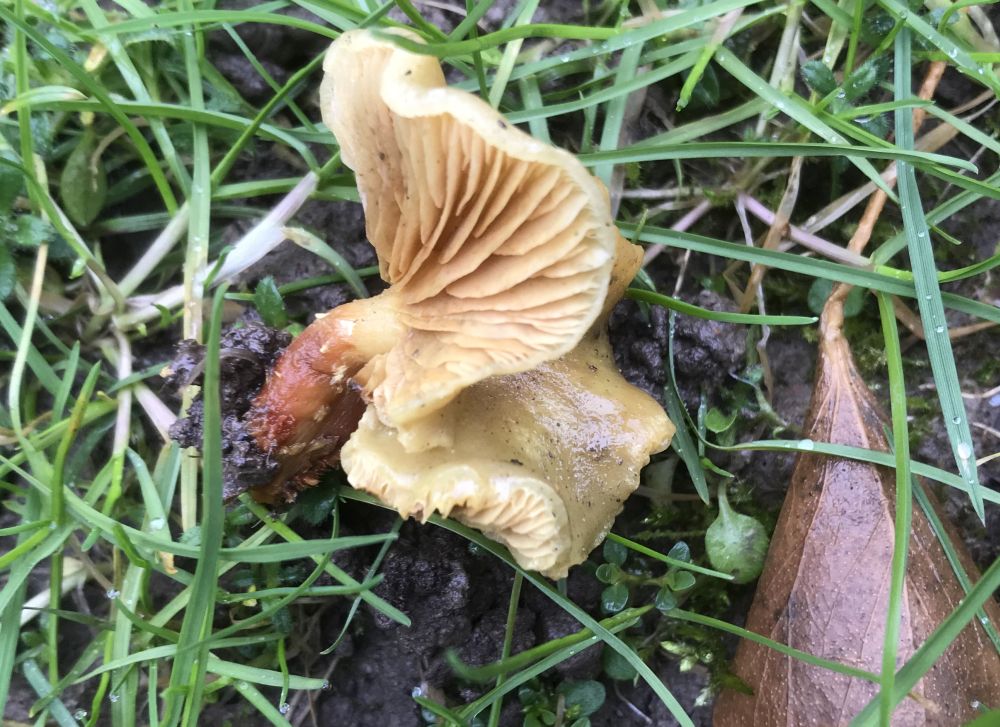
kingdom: Fungi
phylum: Basidiomycota
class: Agaricomycetes
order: Agaricales
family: Strophariaceae
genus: Pholiota
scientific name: Pholiota gummosa
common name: grøngul skælhat
